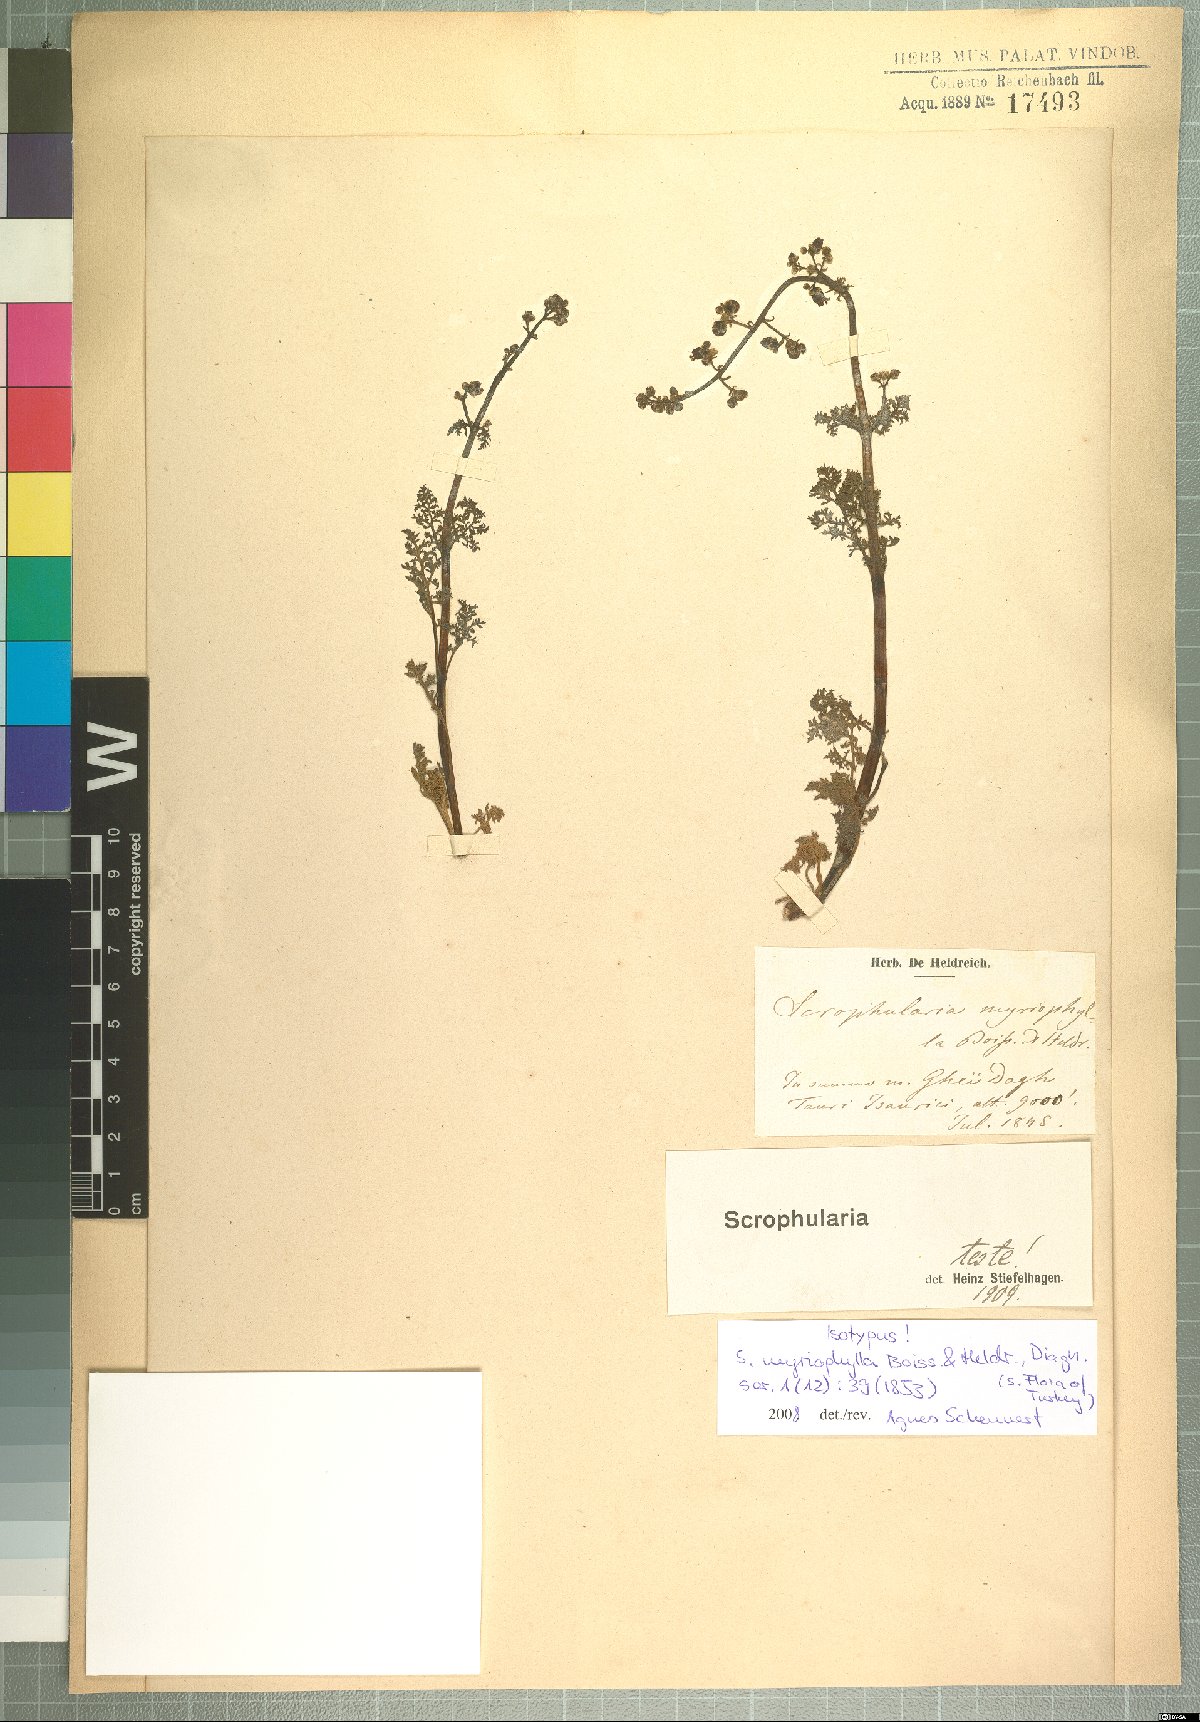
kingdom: Plantae
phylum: Tracheophyta
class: Magnoliopsida
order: Lamiales
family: Scrophulariaceae
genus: Scrophularia
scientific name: Scrophularia myriophylla
